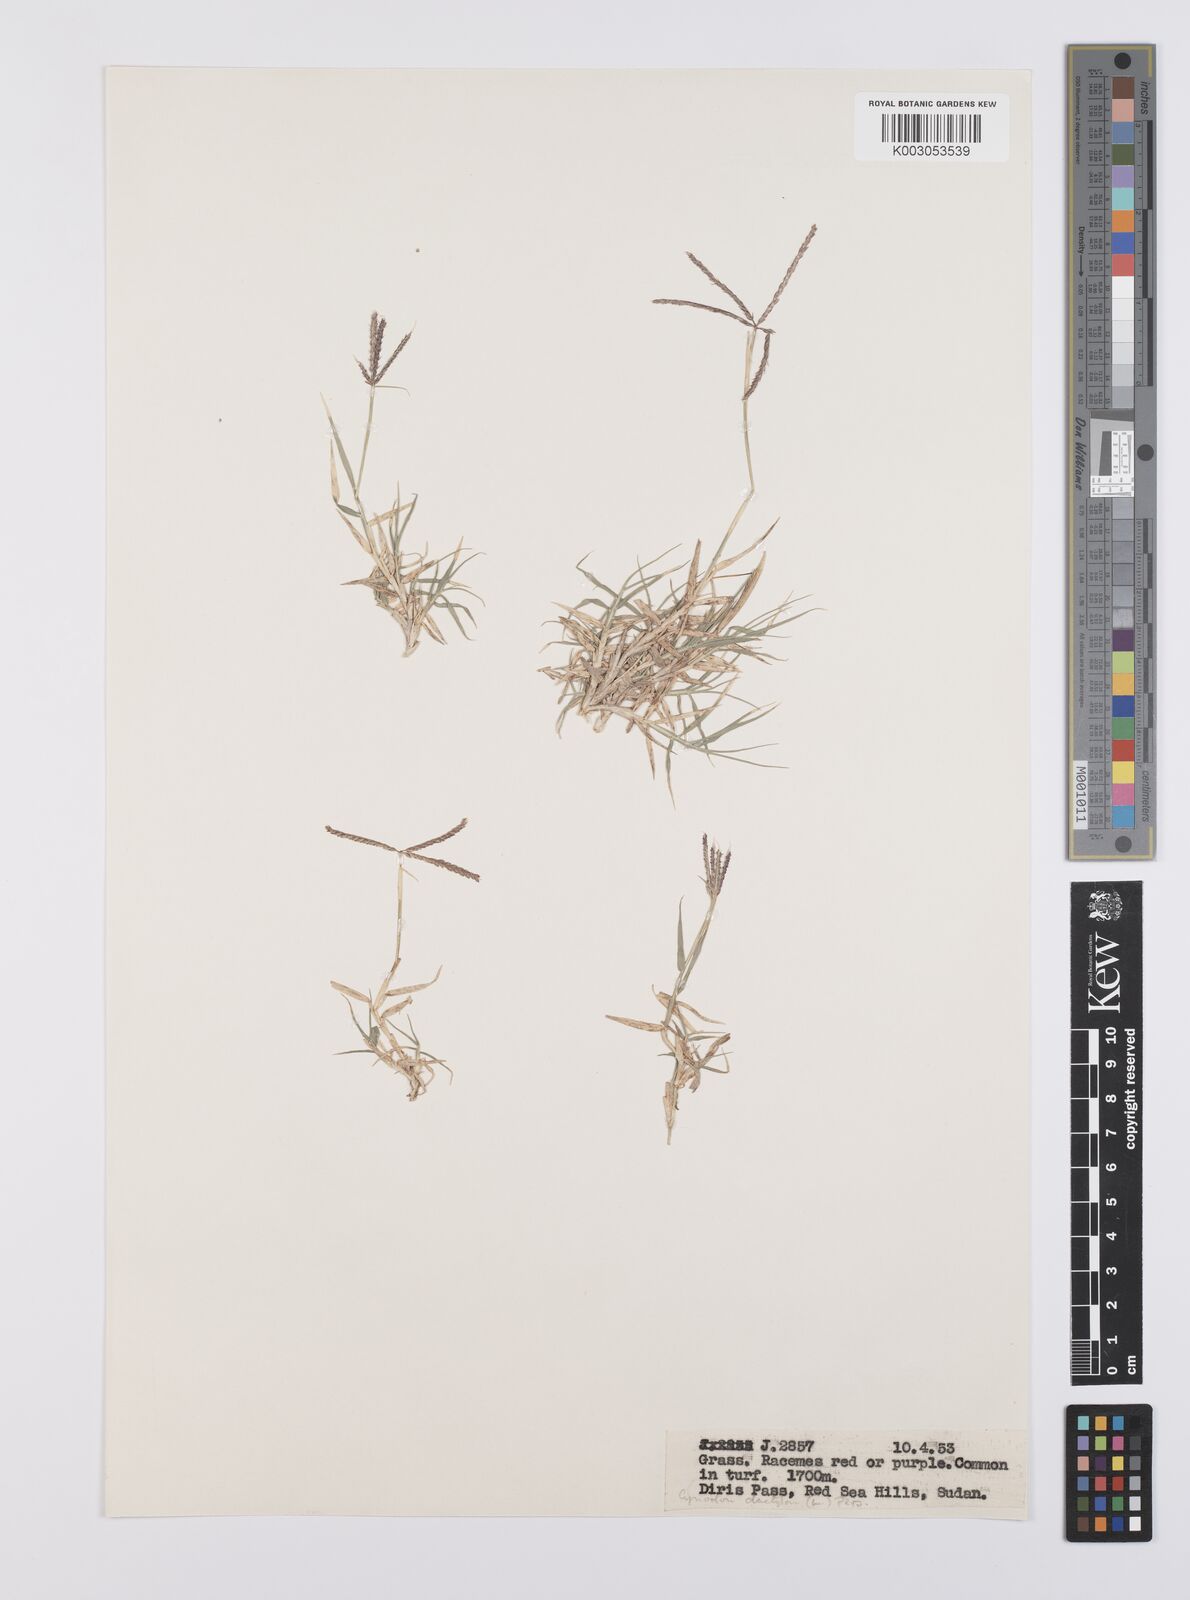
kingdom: Plantae
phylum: Tracheophyta
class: Liliopsida
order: Poales
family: Poaceae
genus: Cynodon
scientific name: Cynodon dactylon
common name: Bermuda grass
